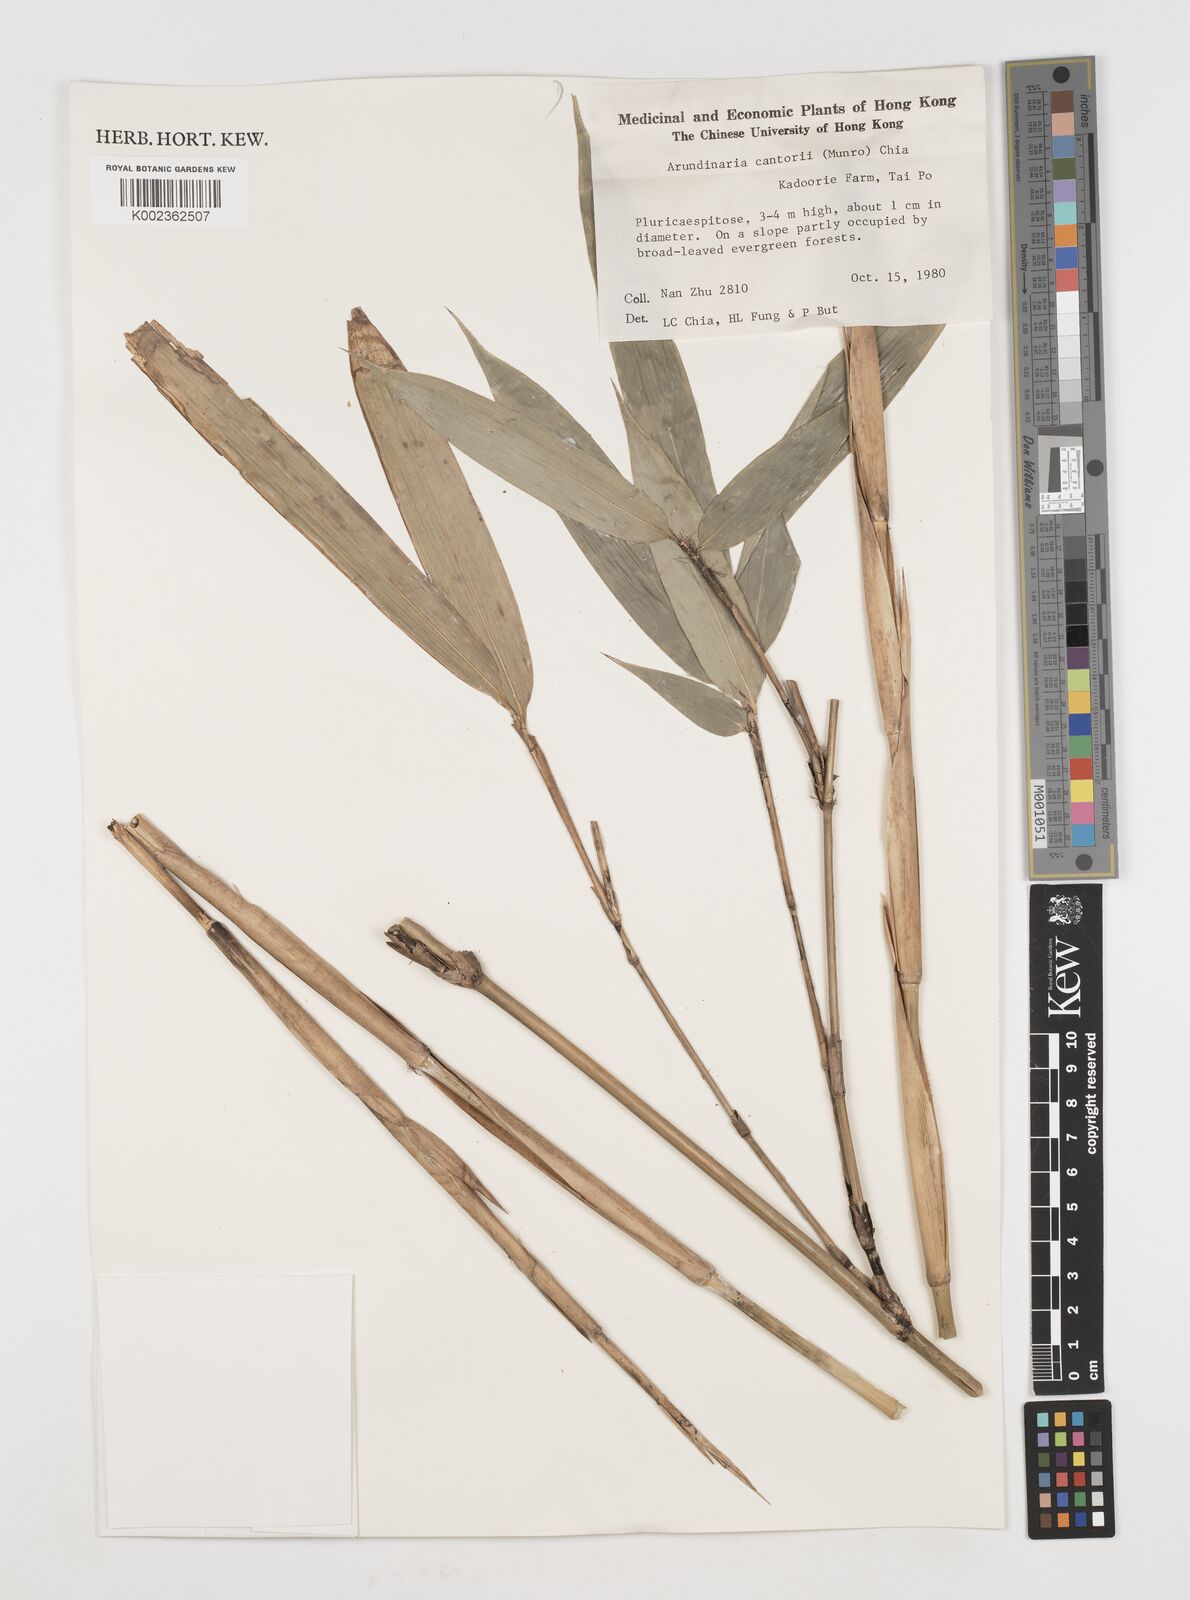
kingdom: Plantae
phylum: Tracheophyta
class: Liliopsida
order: Poales
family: Poaceae
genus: Pseudosasa
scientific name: Pseudosasa cantorii
